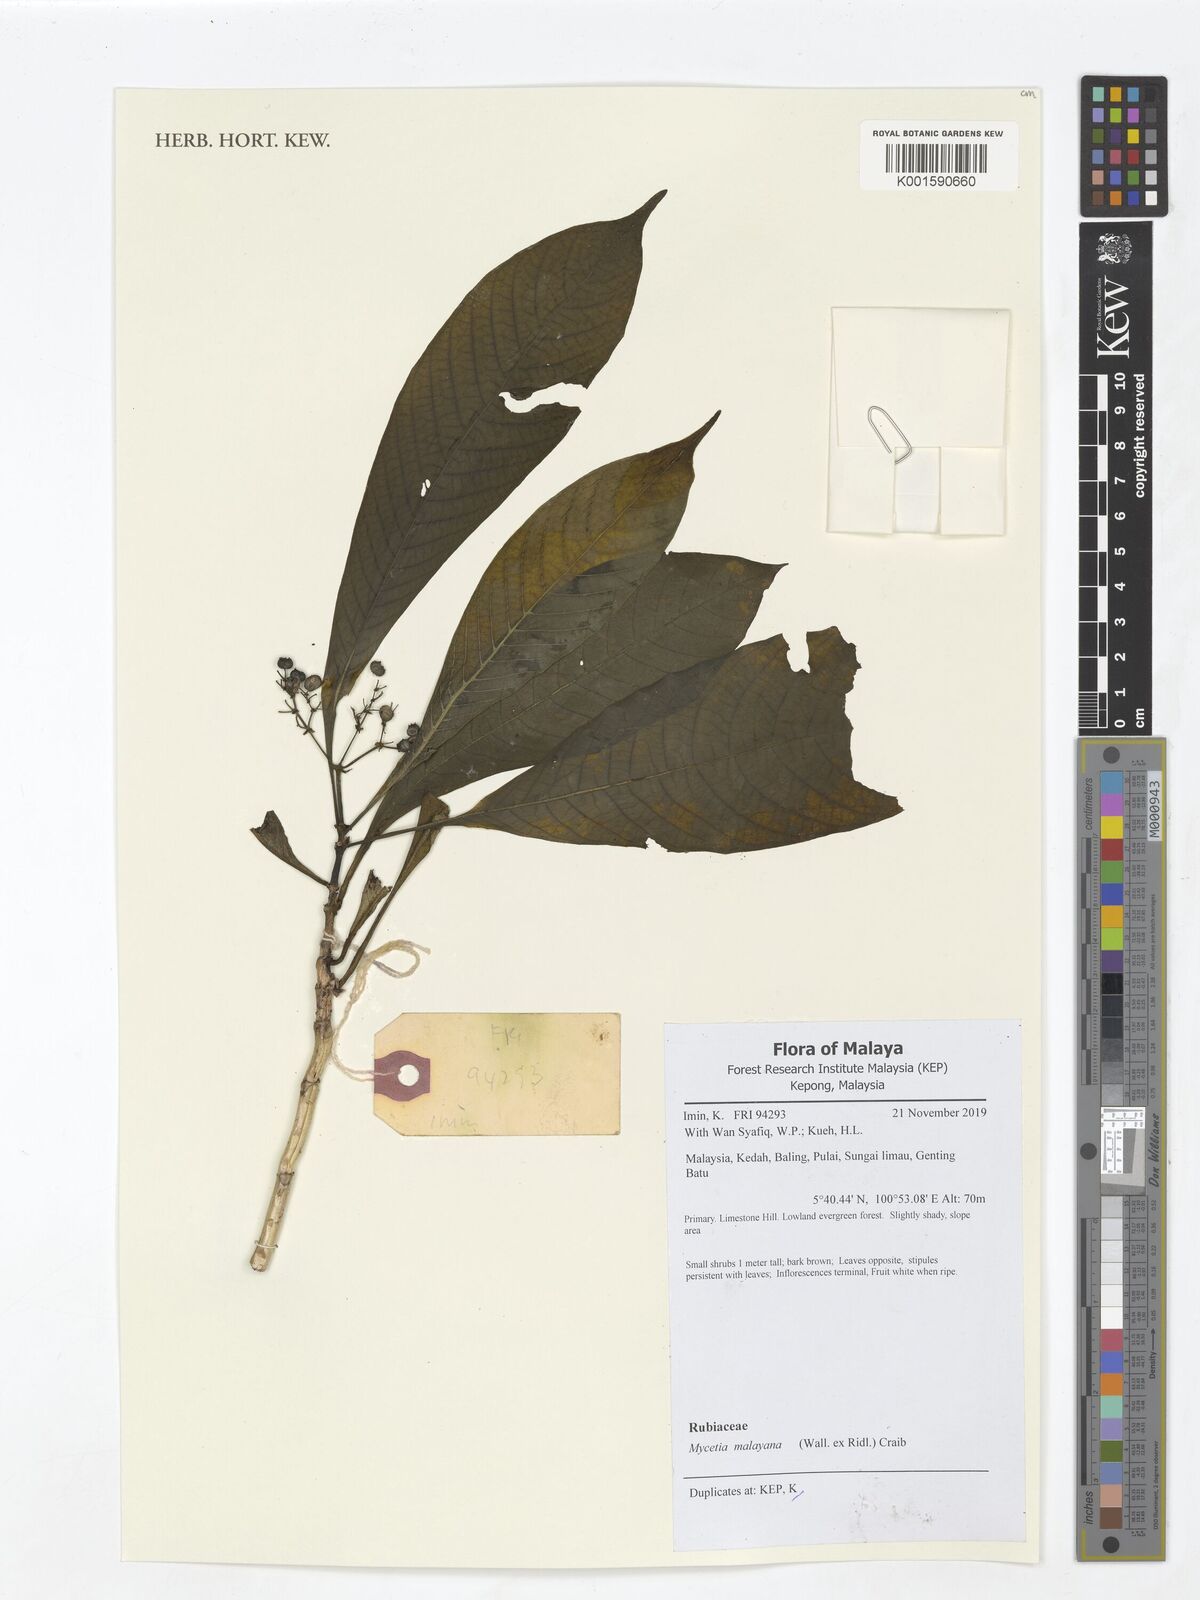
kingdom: Plantae
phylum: Tracheophyta
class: Magnoliopsida
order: Gentianales
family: Rubiaceae
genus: Mycetia
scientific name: Mycetia malayana
